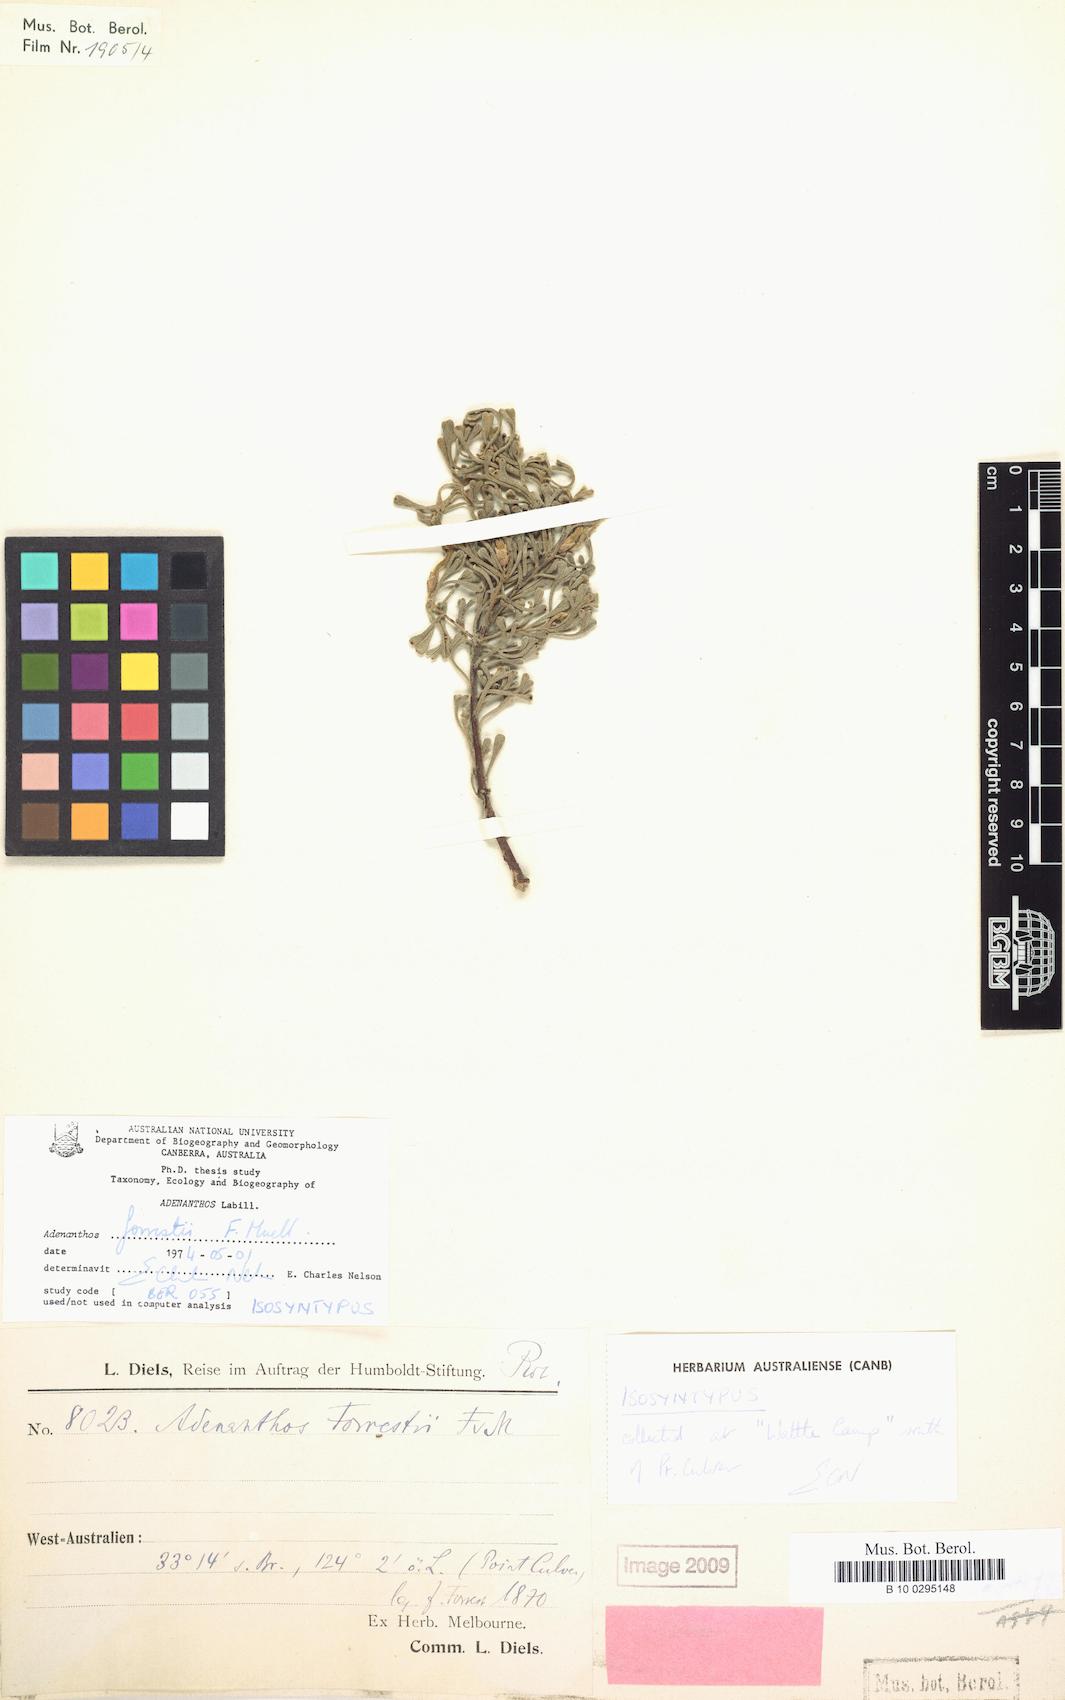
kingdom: Plantae
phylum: Tracheophyta
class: Magnoliopsida
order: Proteales
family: Proteaceae
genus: Adenanthos
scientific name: Adenanthos forrestii
